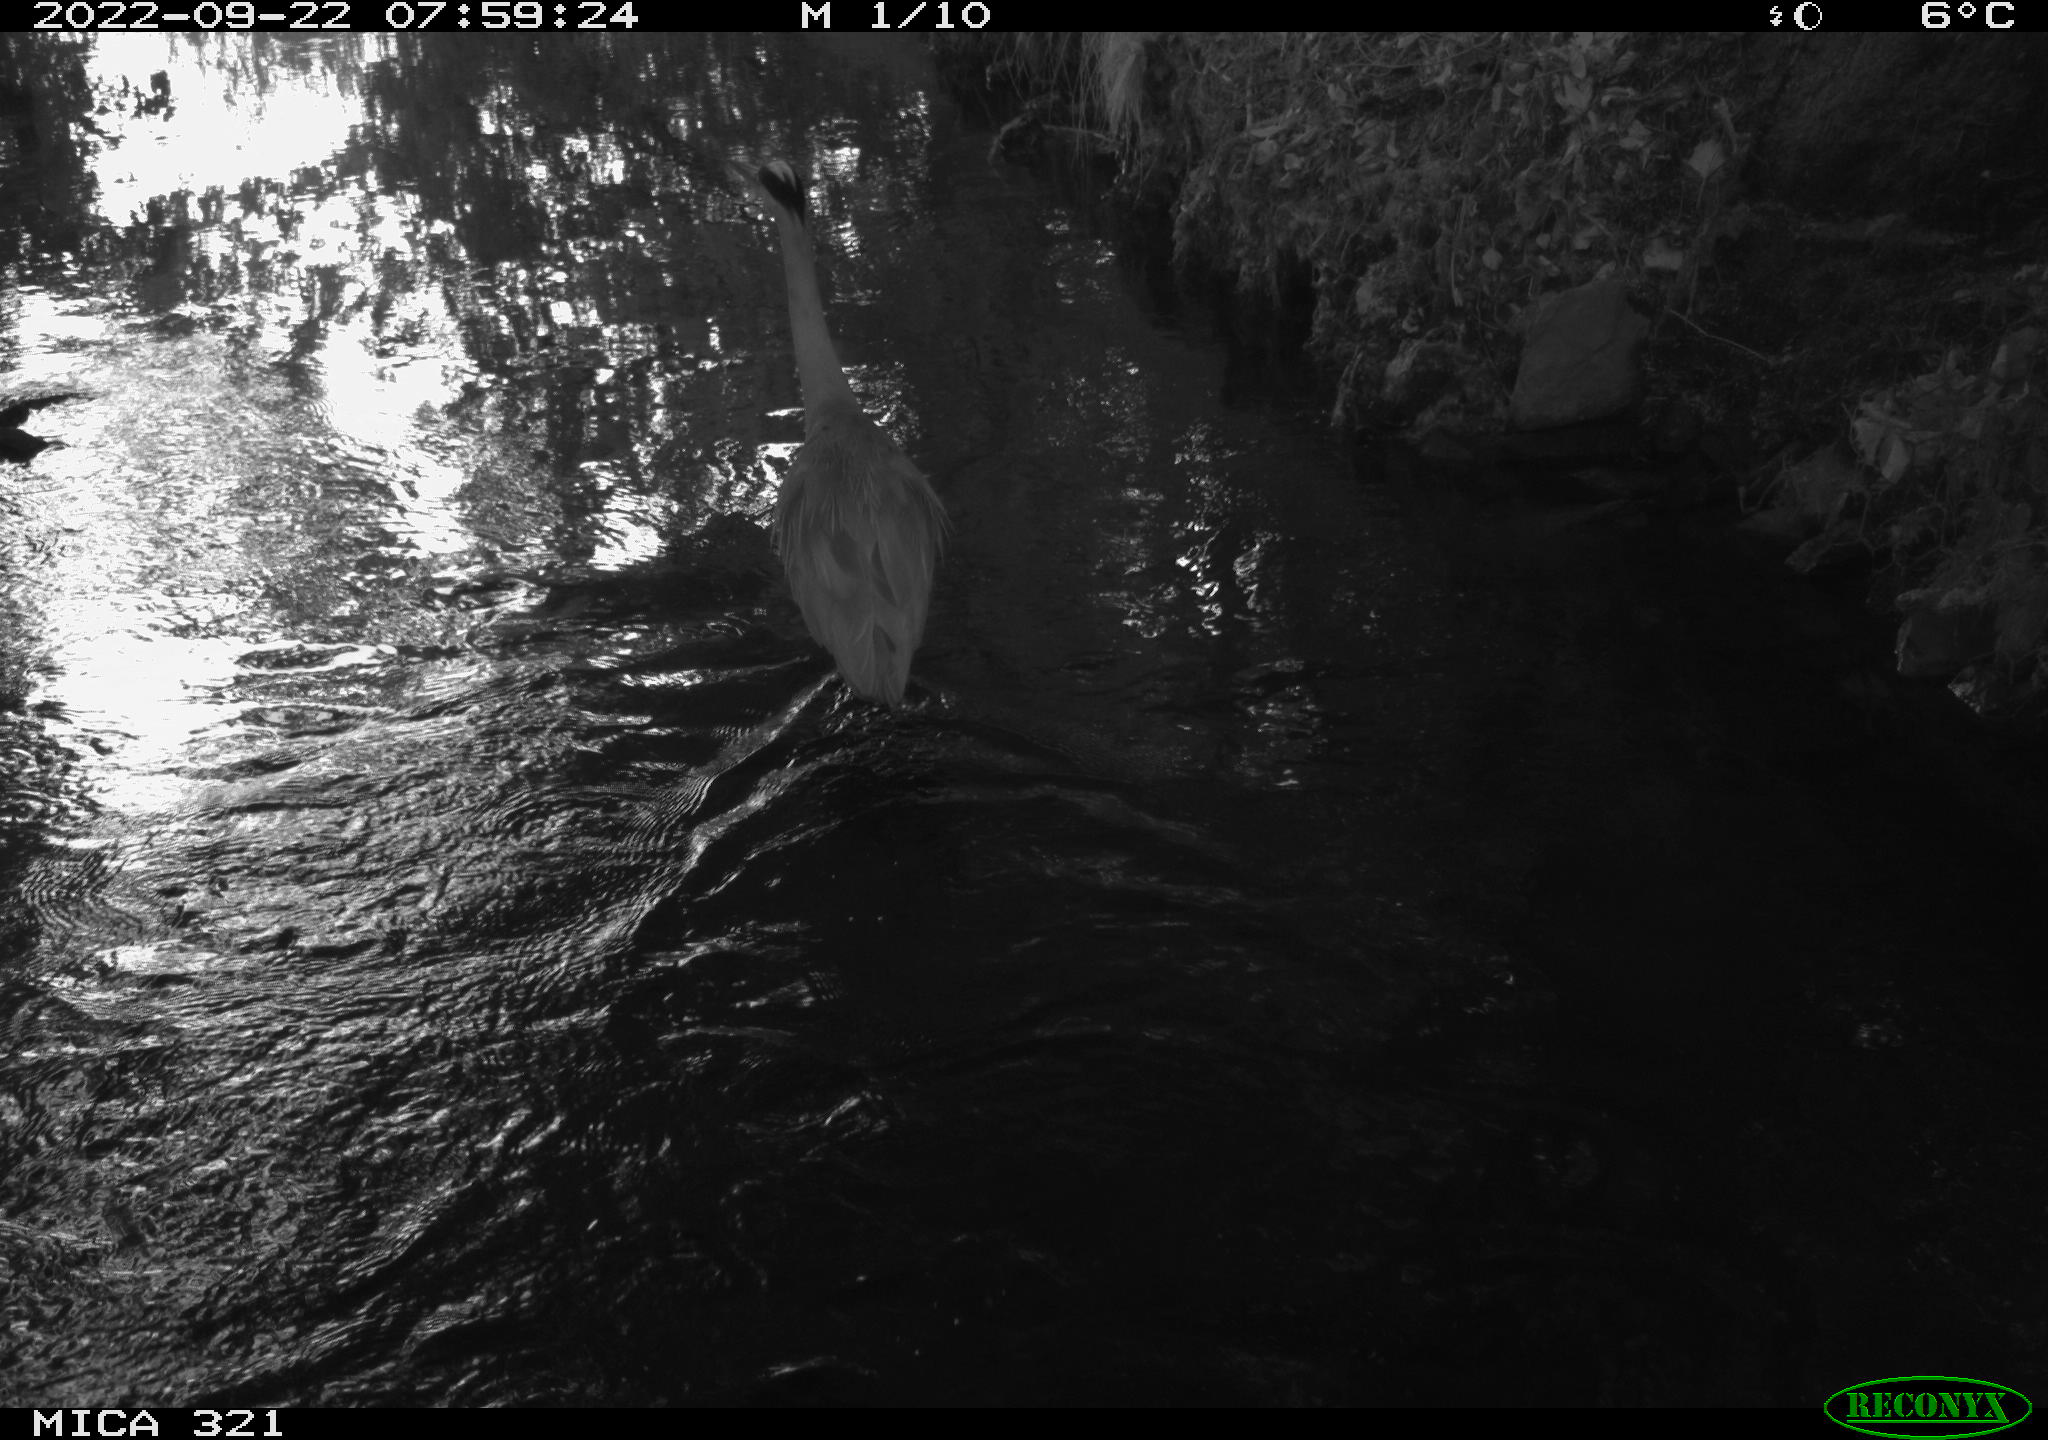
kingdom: Animalia
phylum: Chordata
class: Aves
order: Pelecaniformes
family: Ardeidae
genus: Ardea
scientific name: Ardea cinerea
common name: Grey heron
